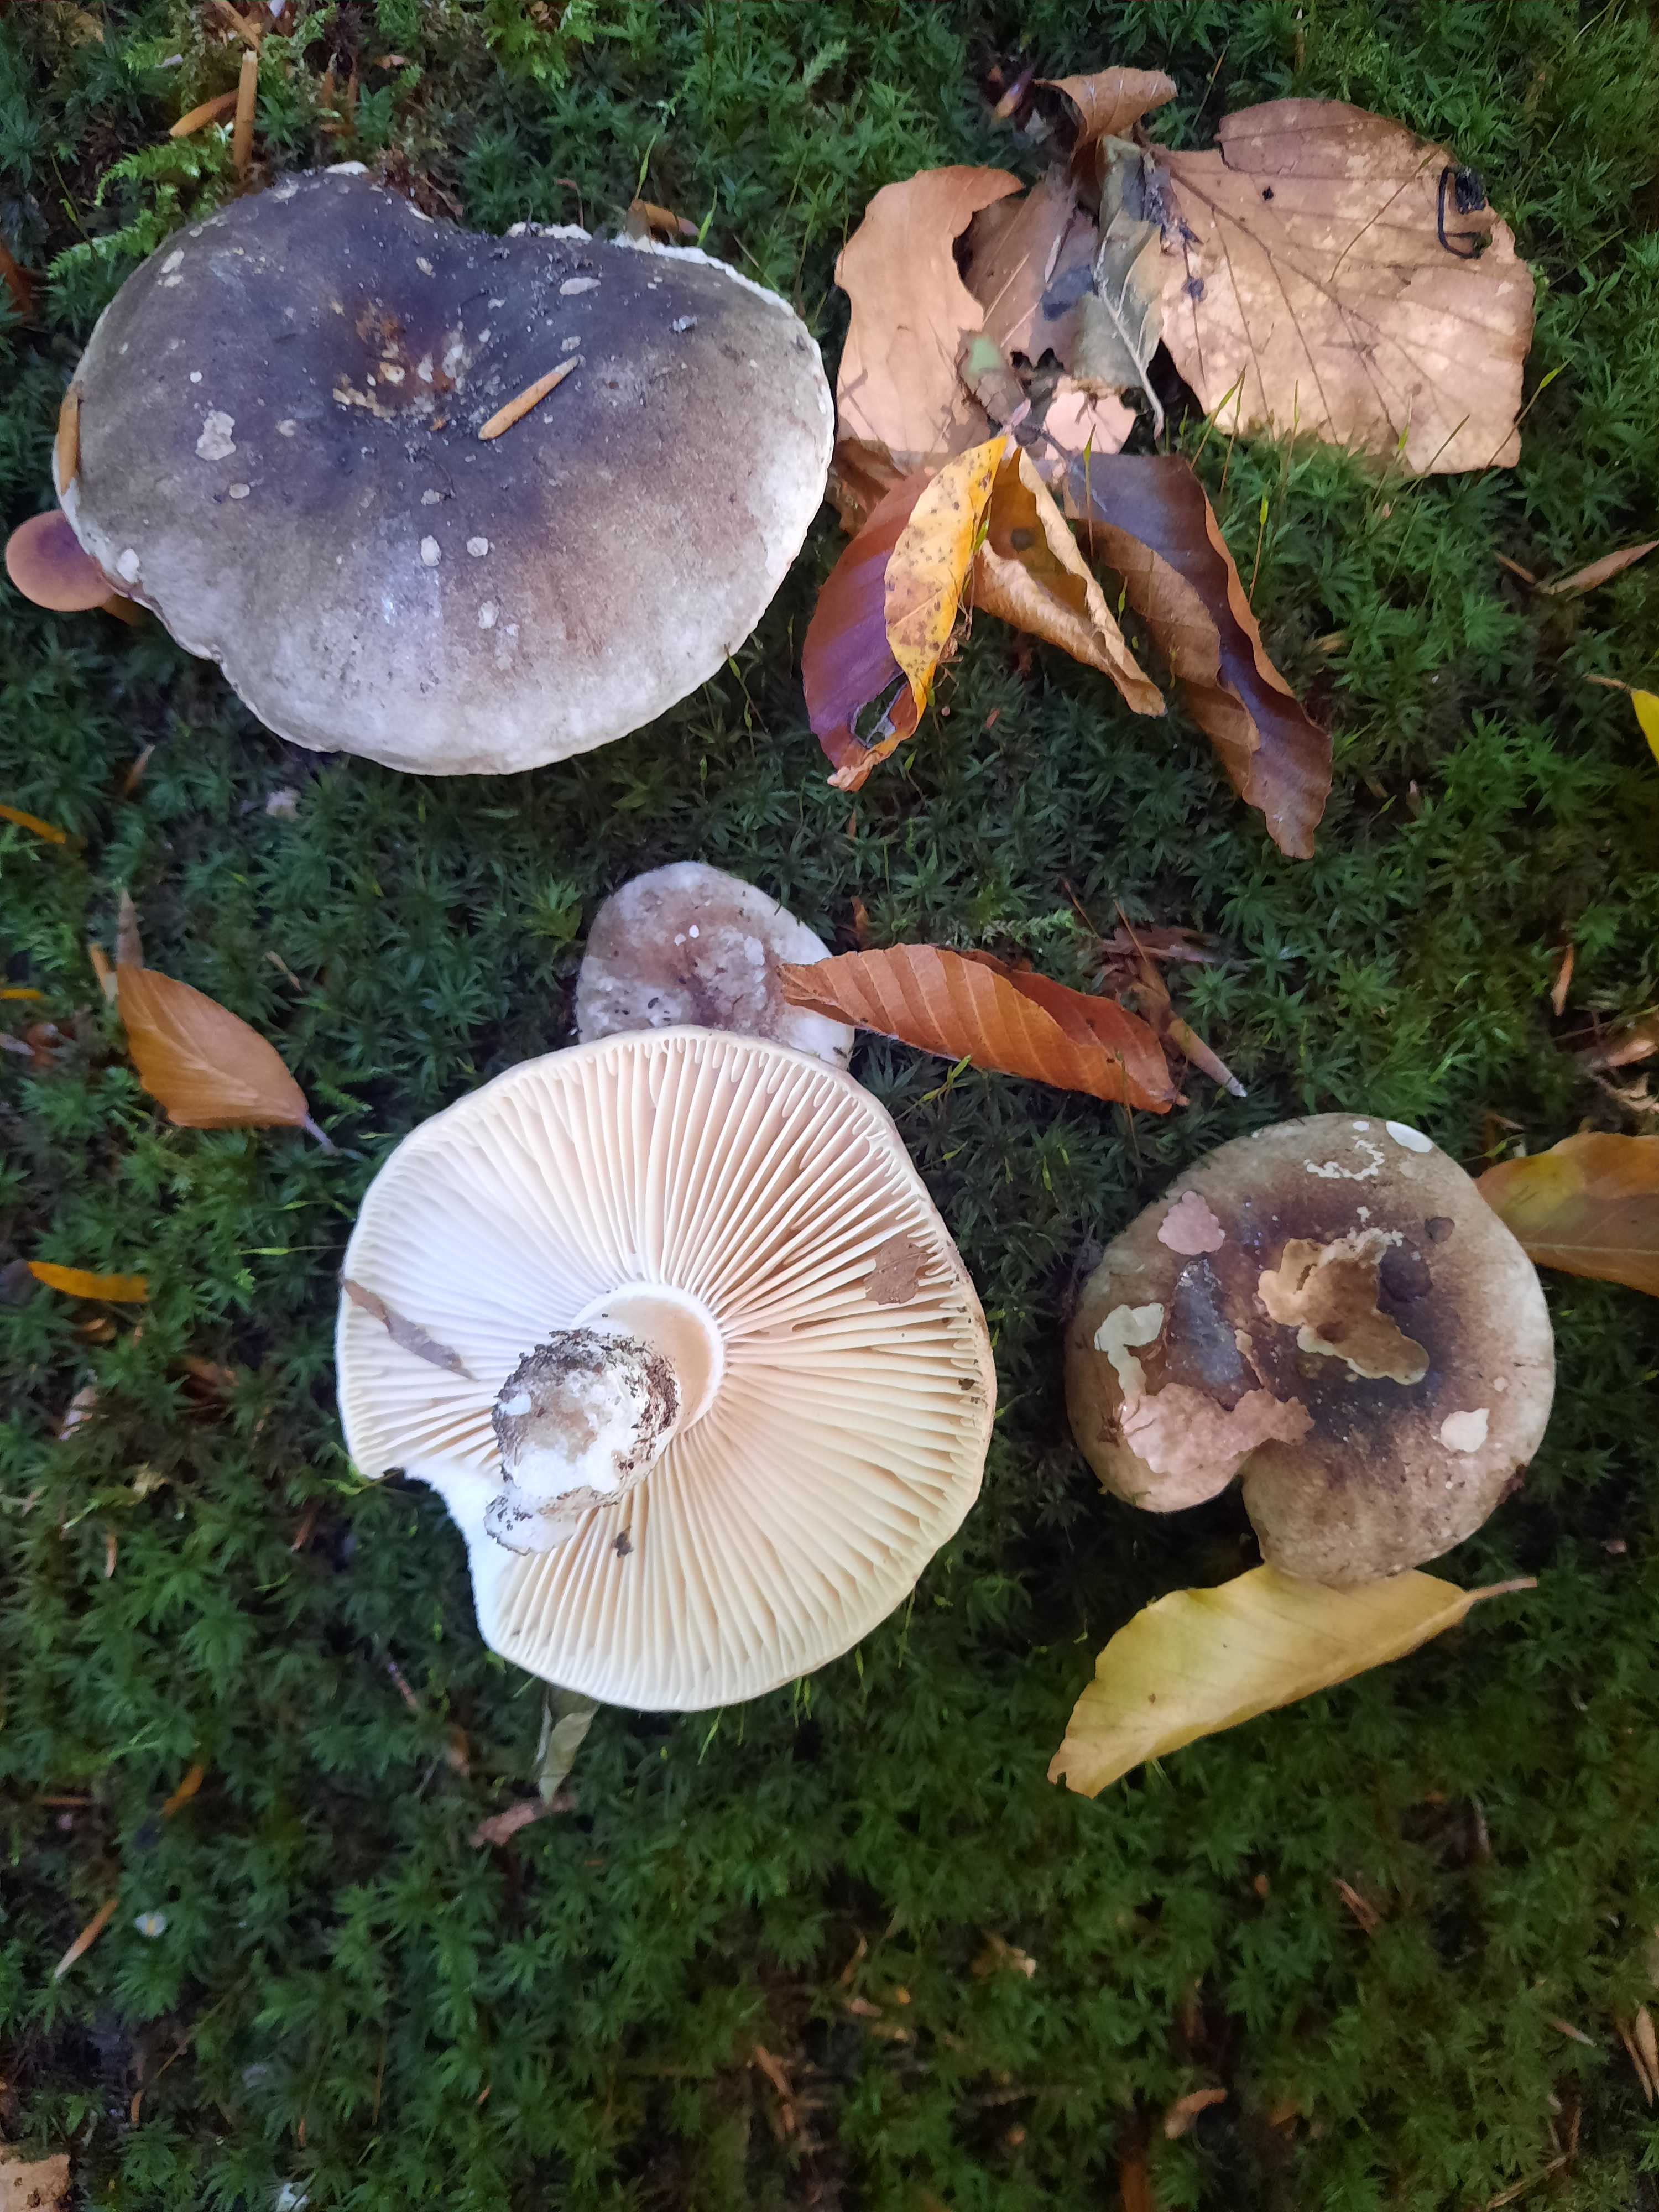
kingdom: Fungi
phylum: Basidiomycota
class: Agaricomycetes
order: Russulales
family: Russulaceae
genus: Russula
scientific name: Russula adusta
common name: sværtende skørhat
